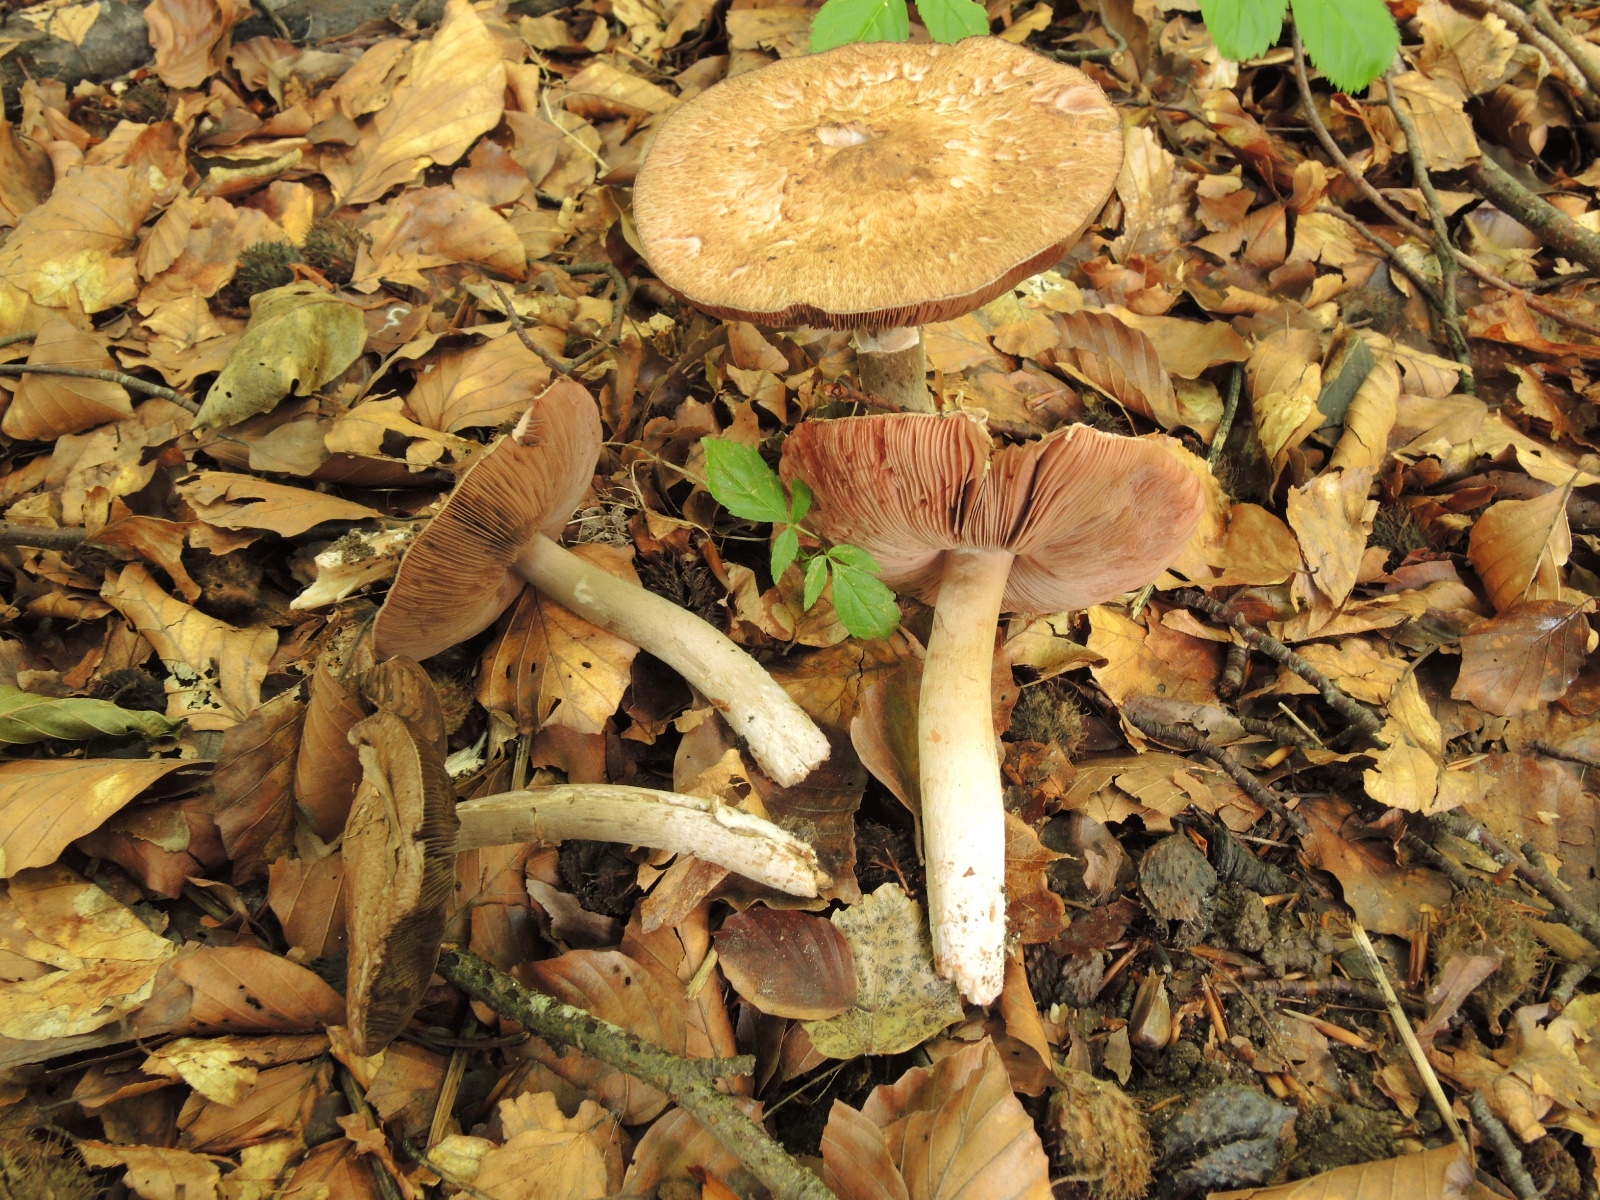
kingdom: Fungi
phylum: Basidiomycota
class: Agaricomycetes
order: Agaricales
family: Agaricaceae
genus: Agaricus
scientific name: Agaricus langei
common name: stor blod-champignon
